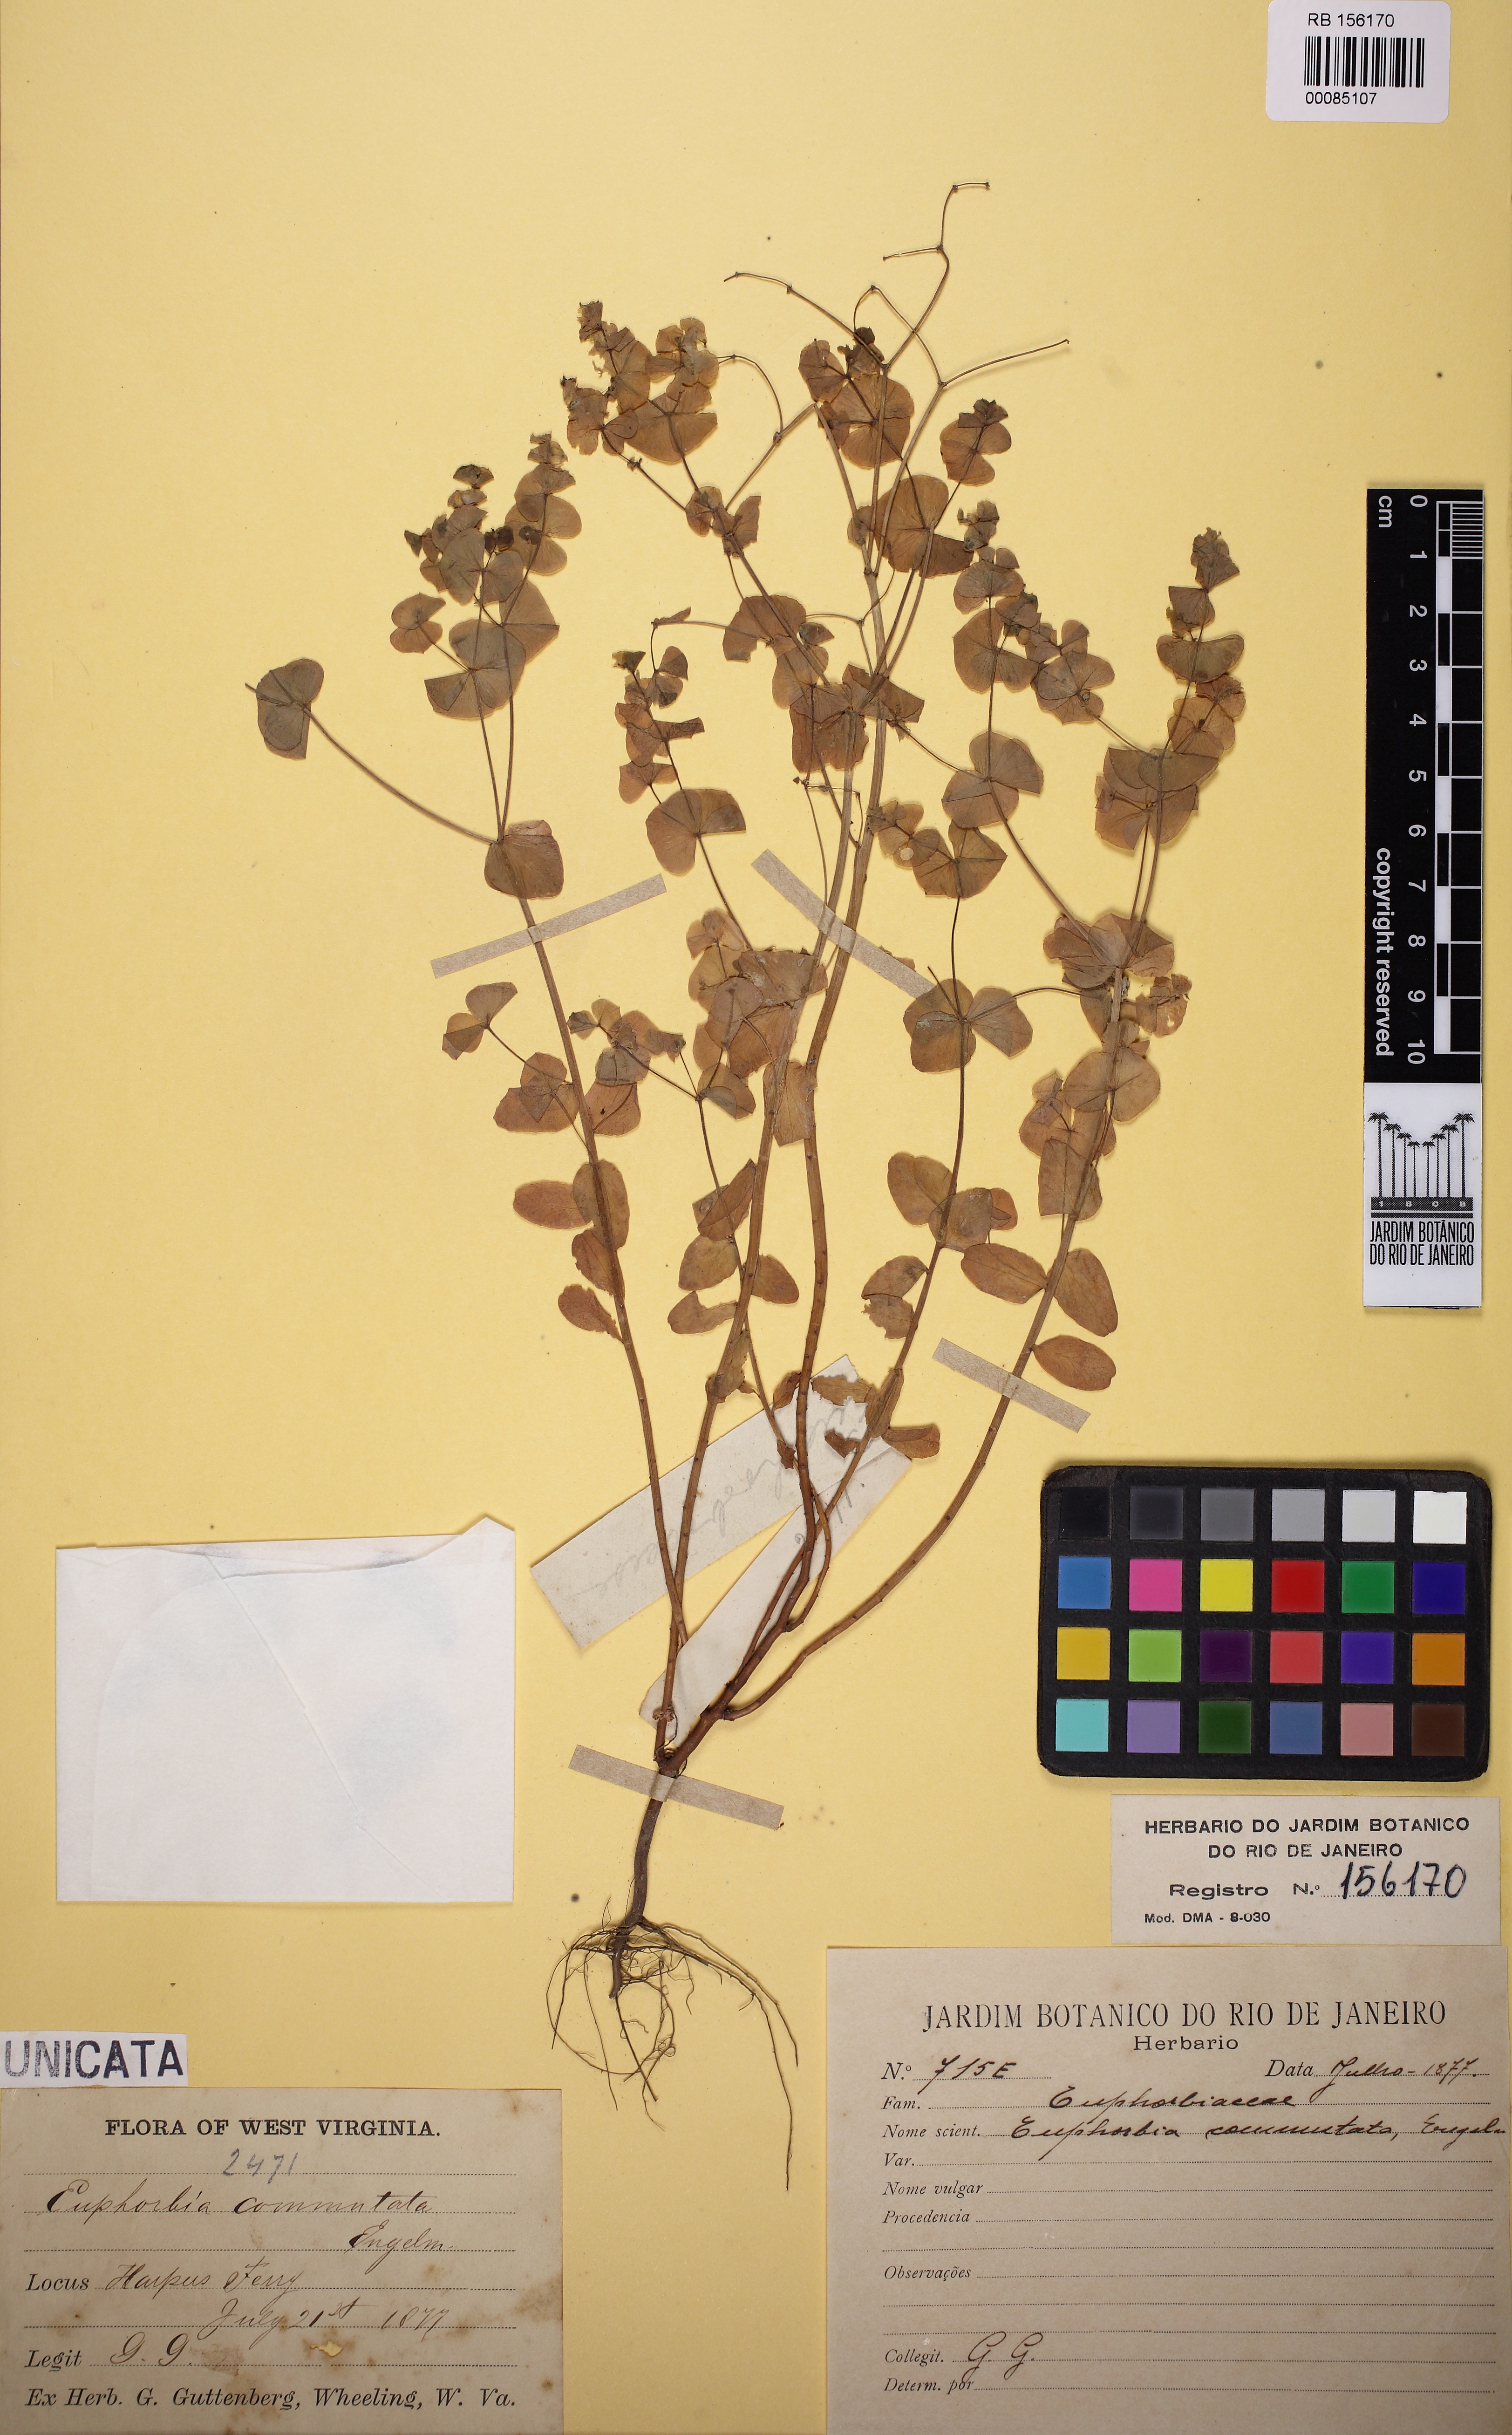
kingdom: Plantae
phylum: Tracheophyta
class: Magnoliopsida
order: Malpighiales
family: Euphorbiaceae
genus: Euphorbia
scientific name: Euphorbia commutata
